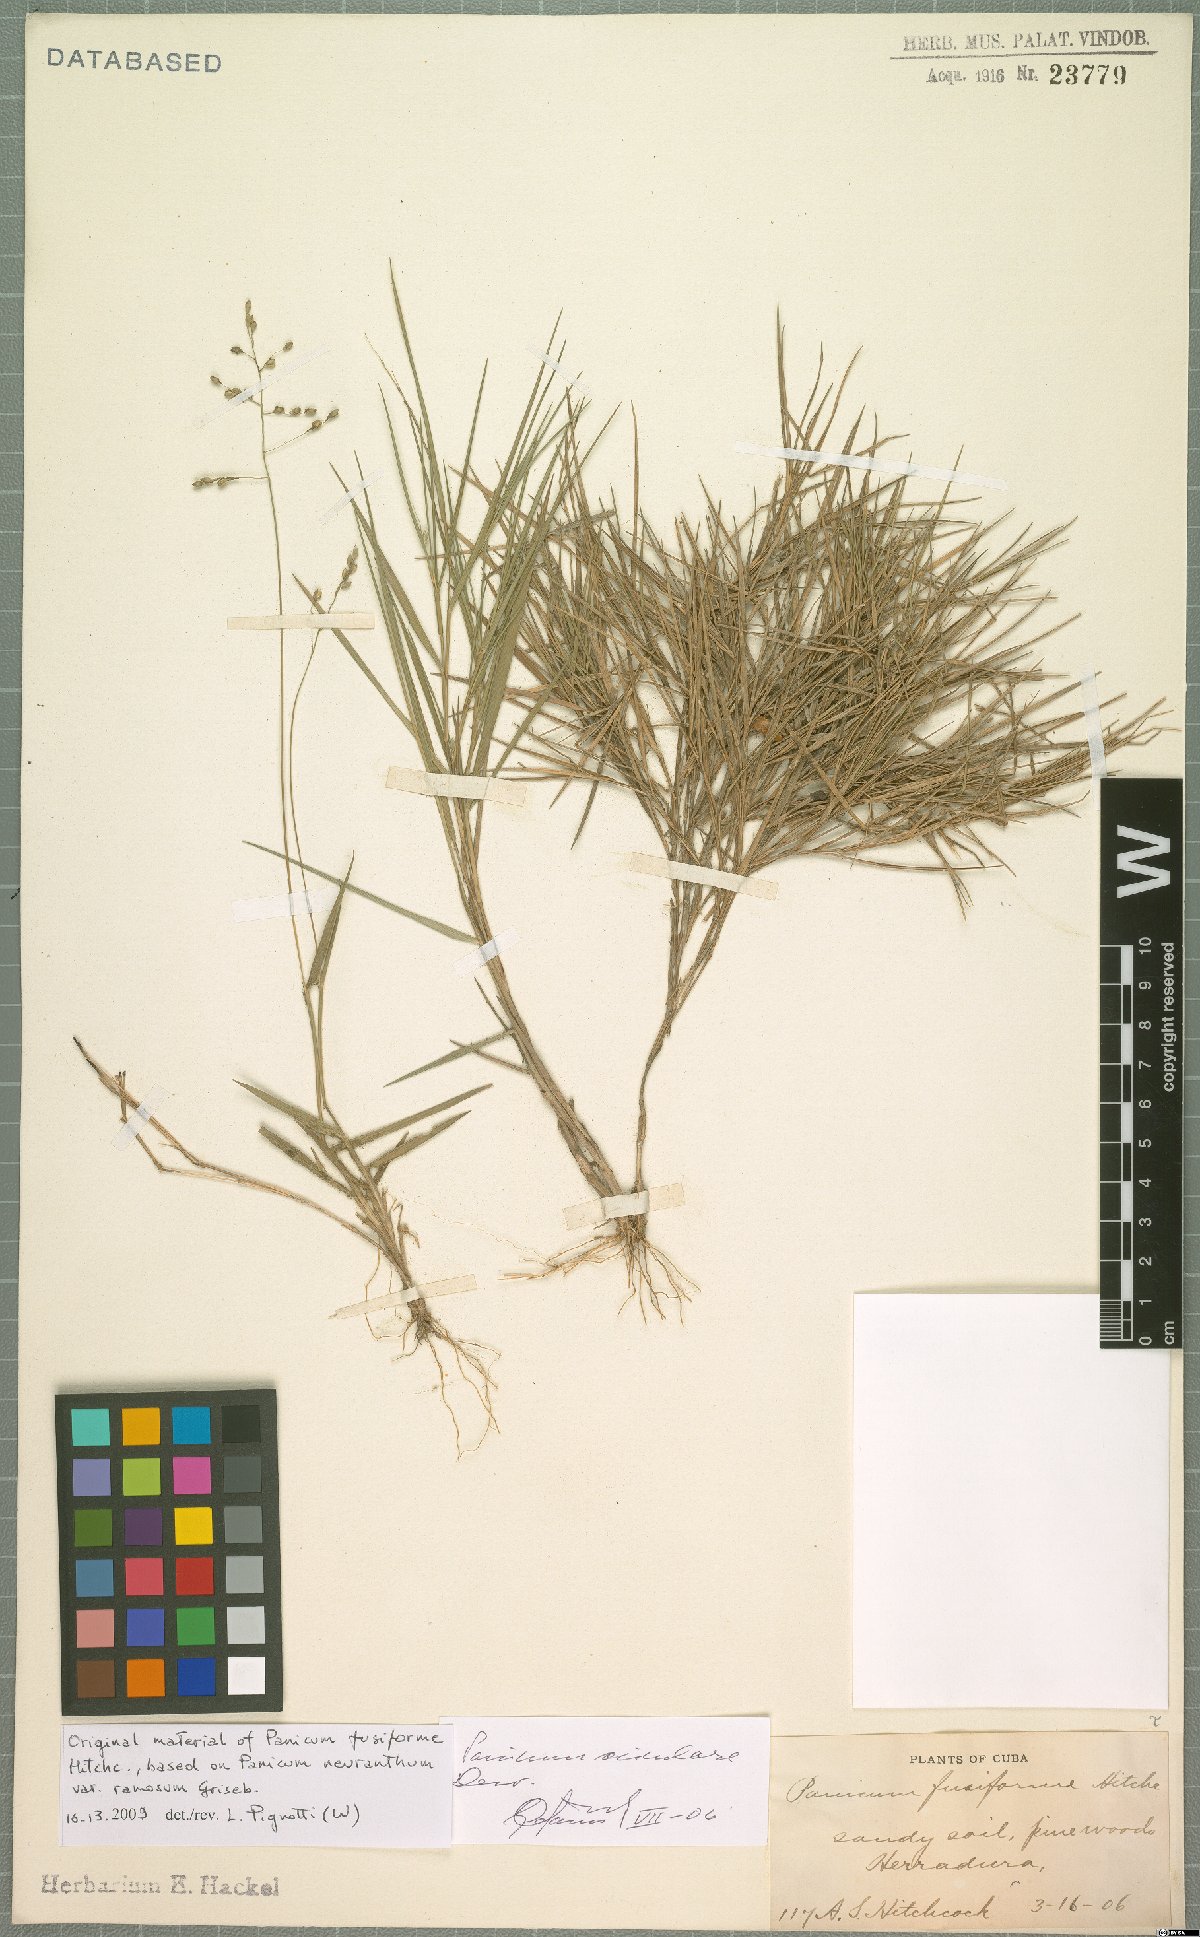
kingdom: Plantae
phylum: Tracheophyta
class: Liliopsida
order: Poales
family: Poaceae
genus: Dichanthelium
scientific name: Dichanthelium aciculare
